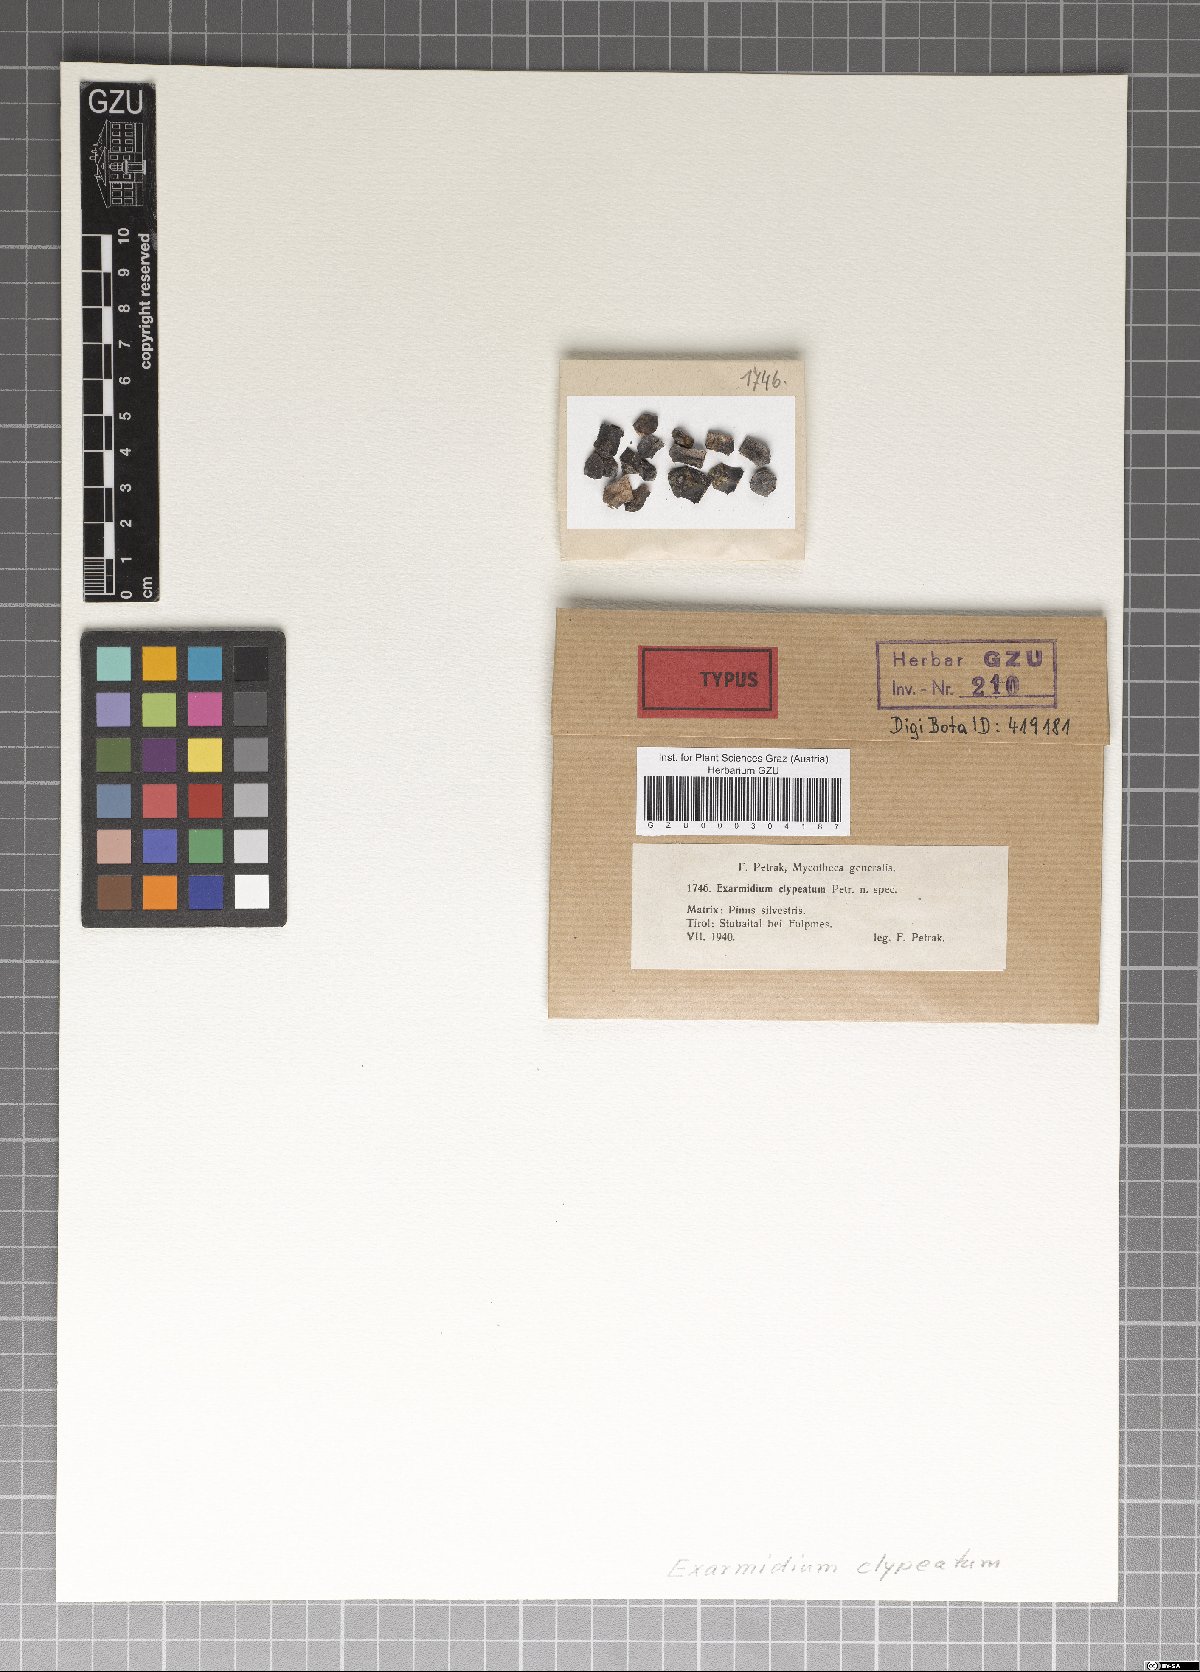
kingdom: Fungi
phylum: Ascomycota
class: Sordariomycetes
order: Xylariales
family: Hyponectriaceae
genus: Exarmidium
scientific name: Exarmidium clypeatum
